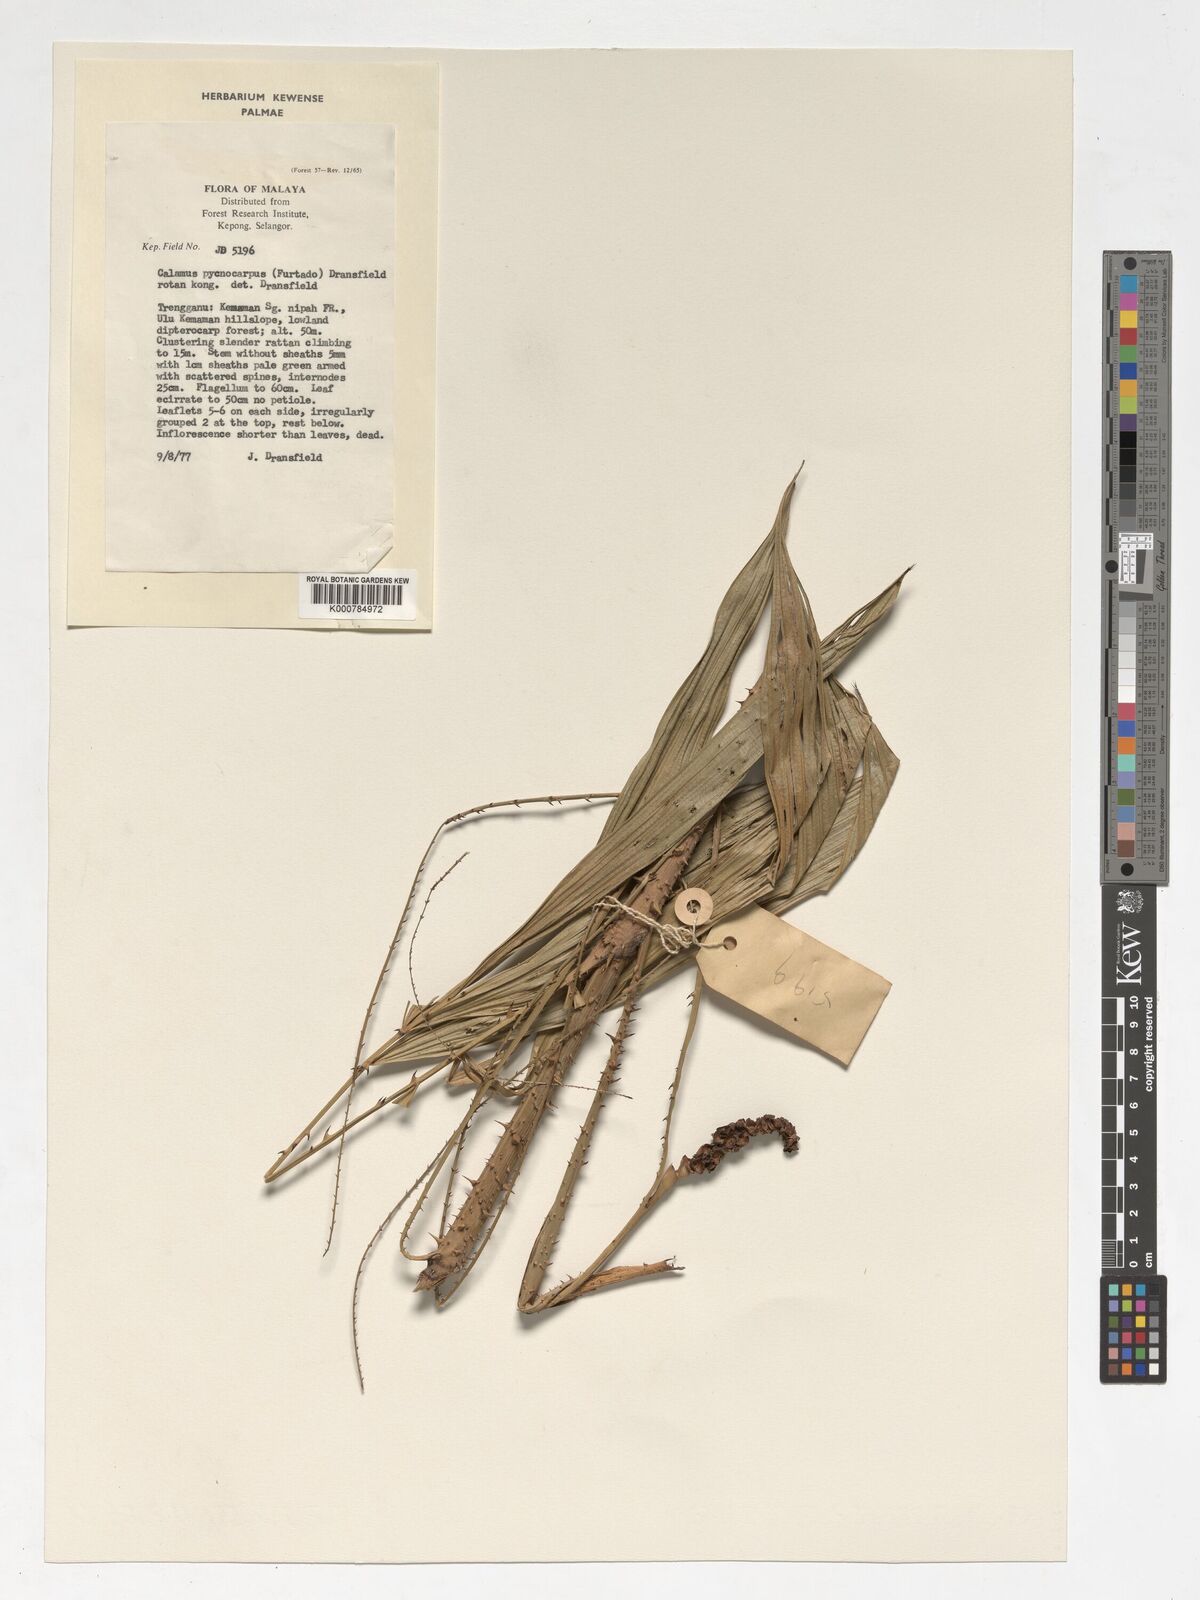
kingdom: Plantae
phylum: Tracheophyta
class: Liliopsida
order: Arecales
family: Arecaceae
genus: Calamus
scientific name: Calamus pycnocarpus
